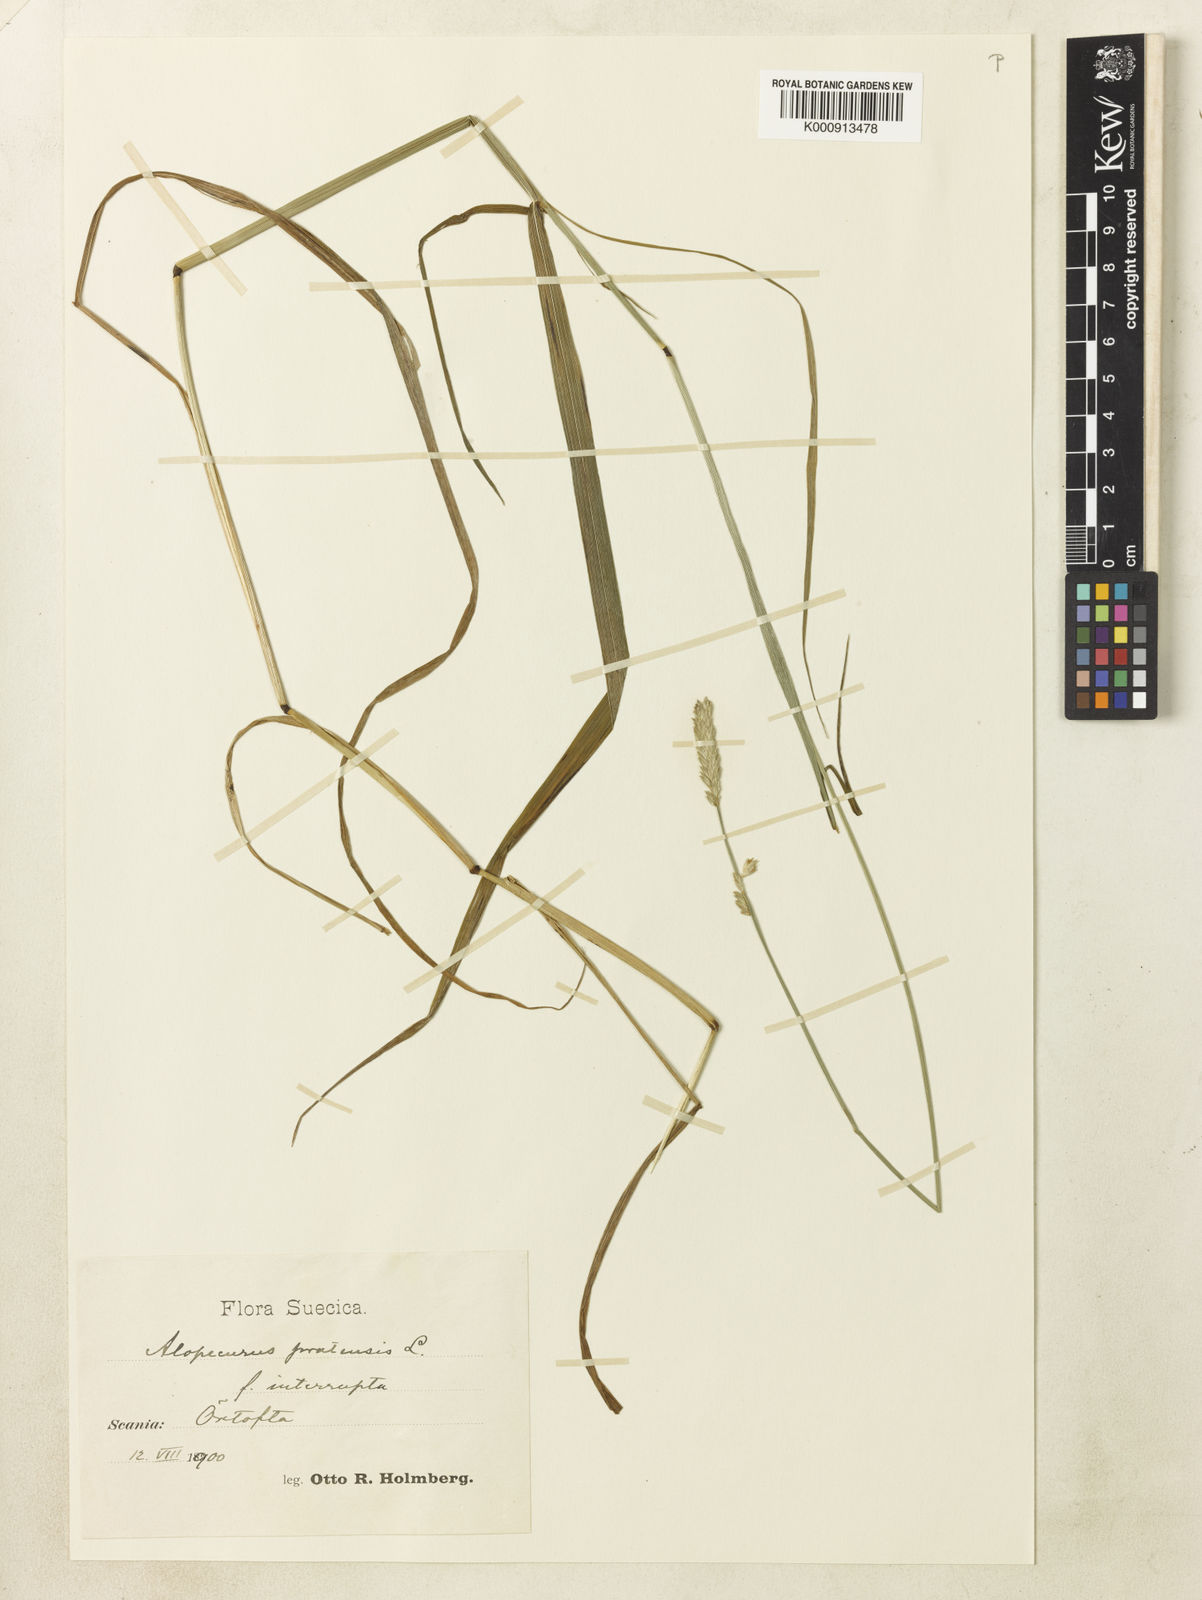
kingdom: Plantae
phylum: Tracheophyta
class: Liliopsida
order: Poales
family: Poaceae
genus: Alopecurus
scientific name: Alopecurus pratensis
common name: Meadow foxtail
